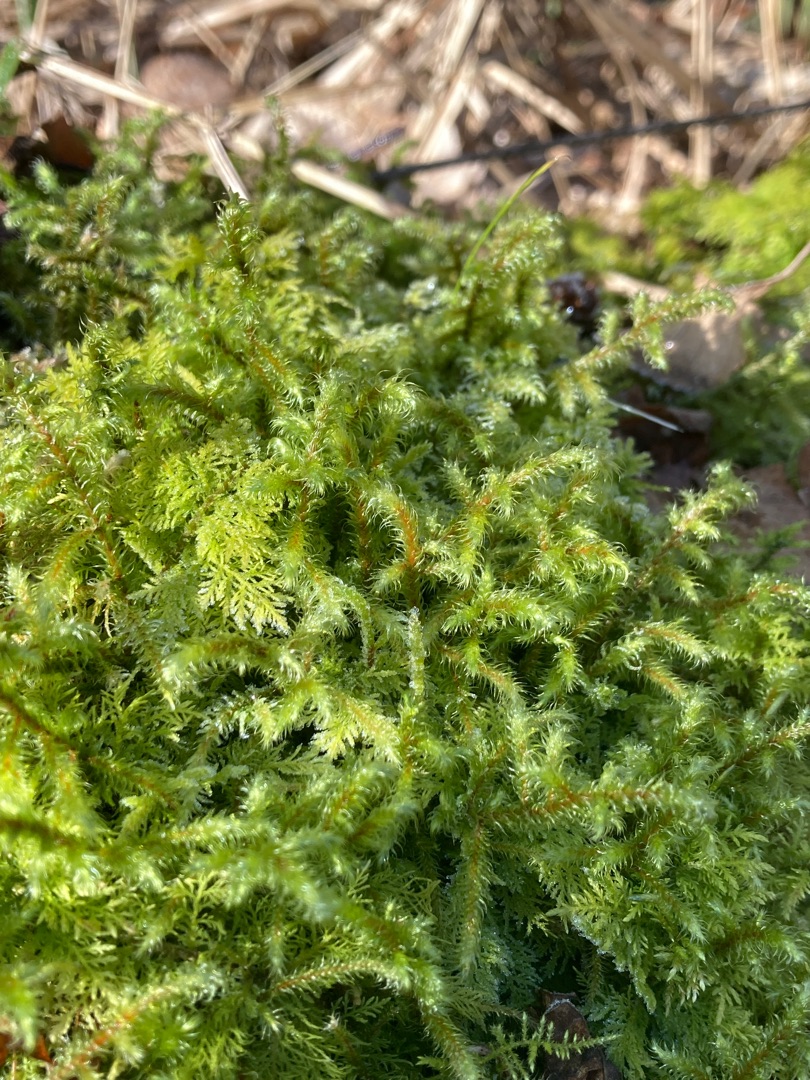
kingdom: Plantae
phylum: Bryophyta
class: Bryopsida
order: Hypnales
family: Hylocomiaceae
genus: Rhytidiadelphus
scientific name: Rhytidiadelphus loreus
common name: Ulvefod-kransemos
